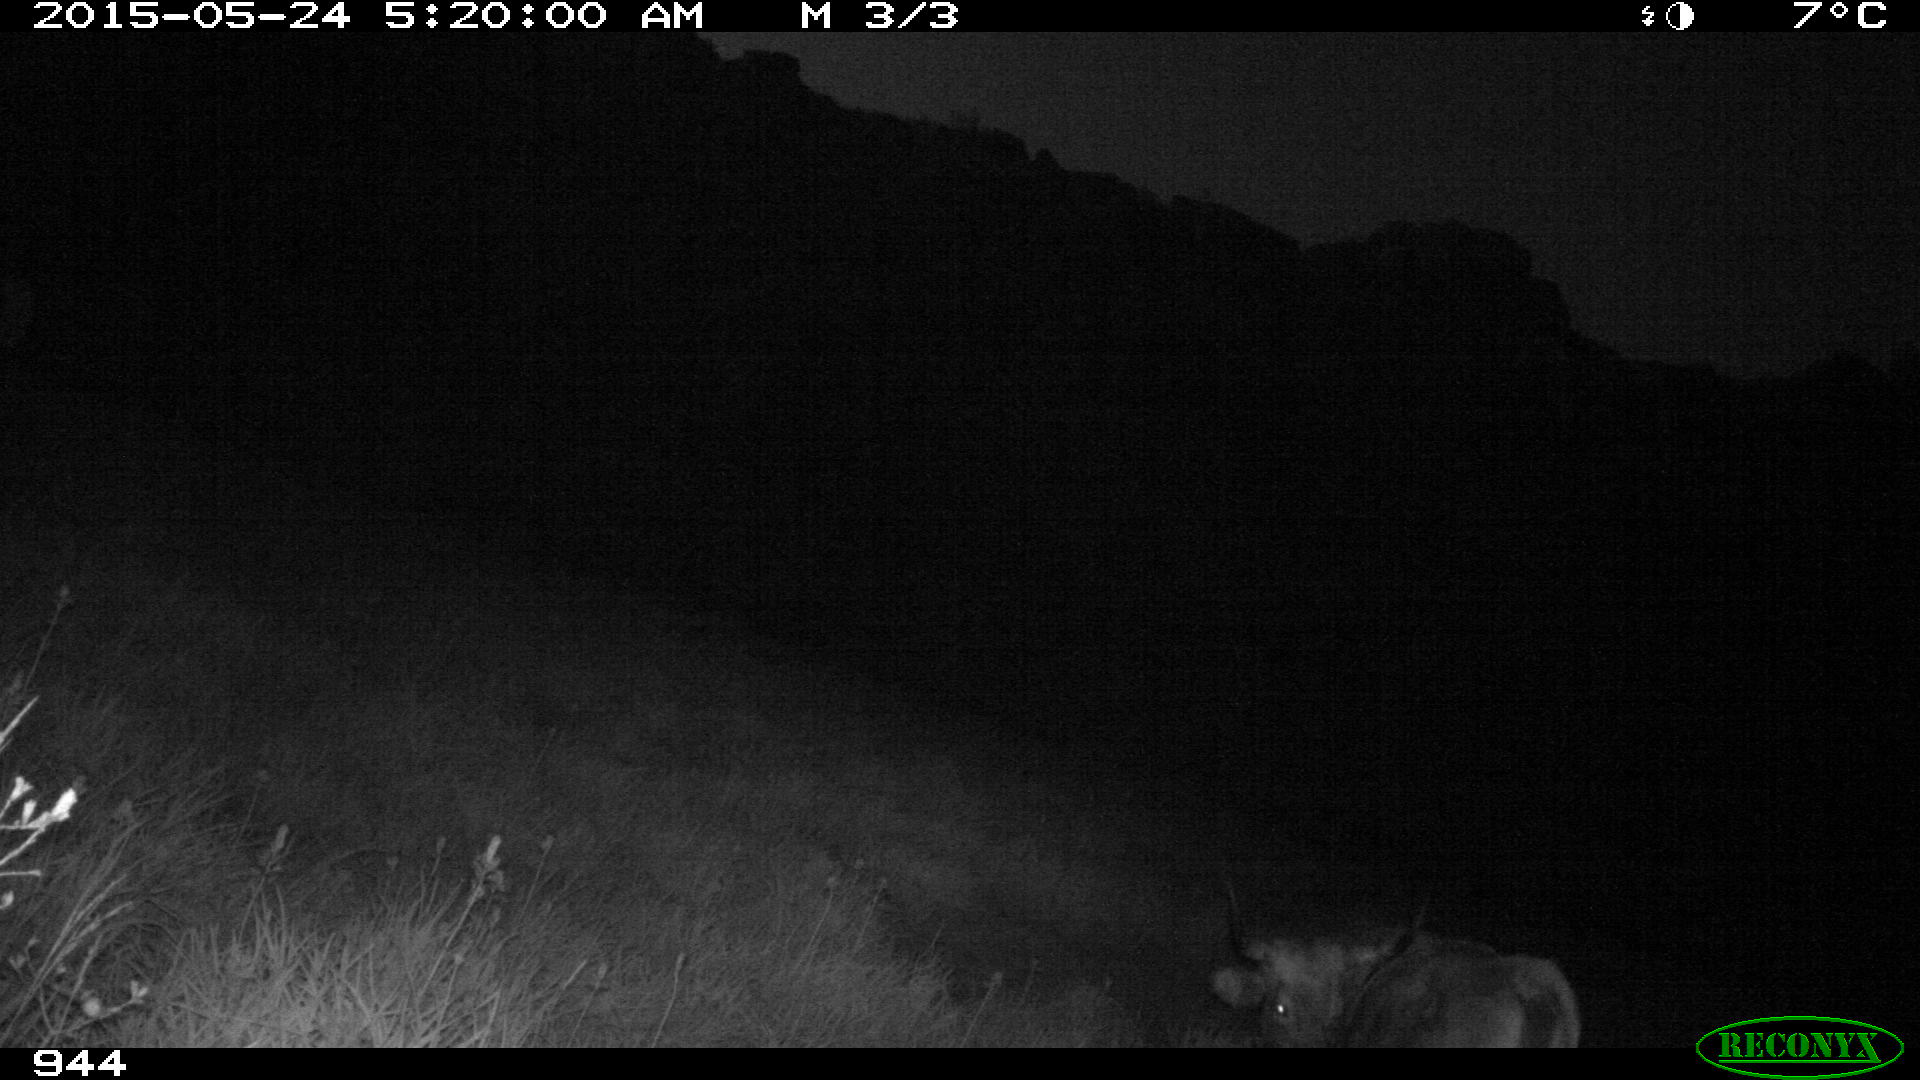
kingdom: Animalia
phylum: Chordata
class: Mammalia
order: Artiodactyla
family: Bovidae
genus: Bos
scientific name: Bos taurus
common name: Domesticated cattle
